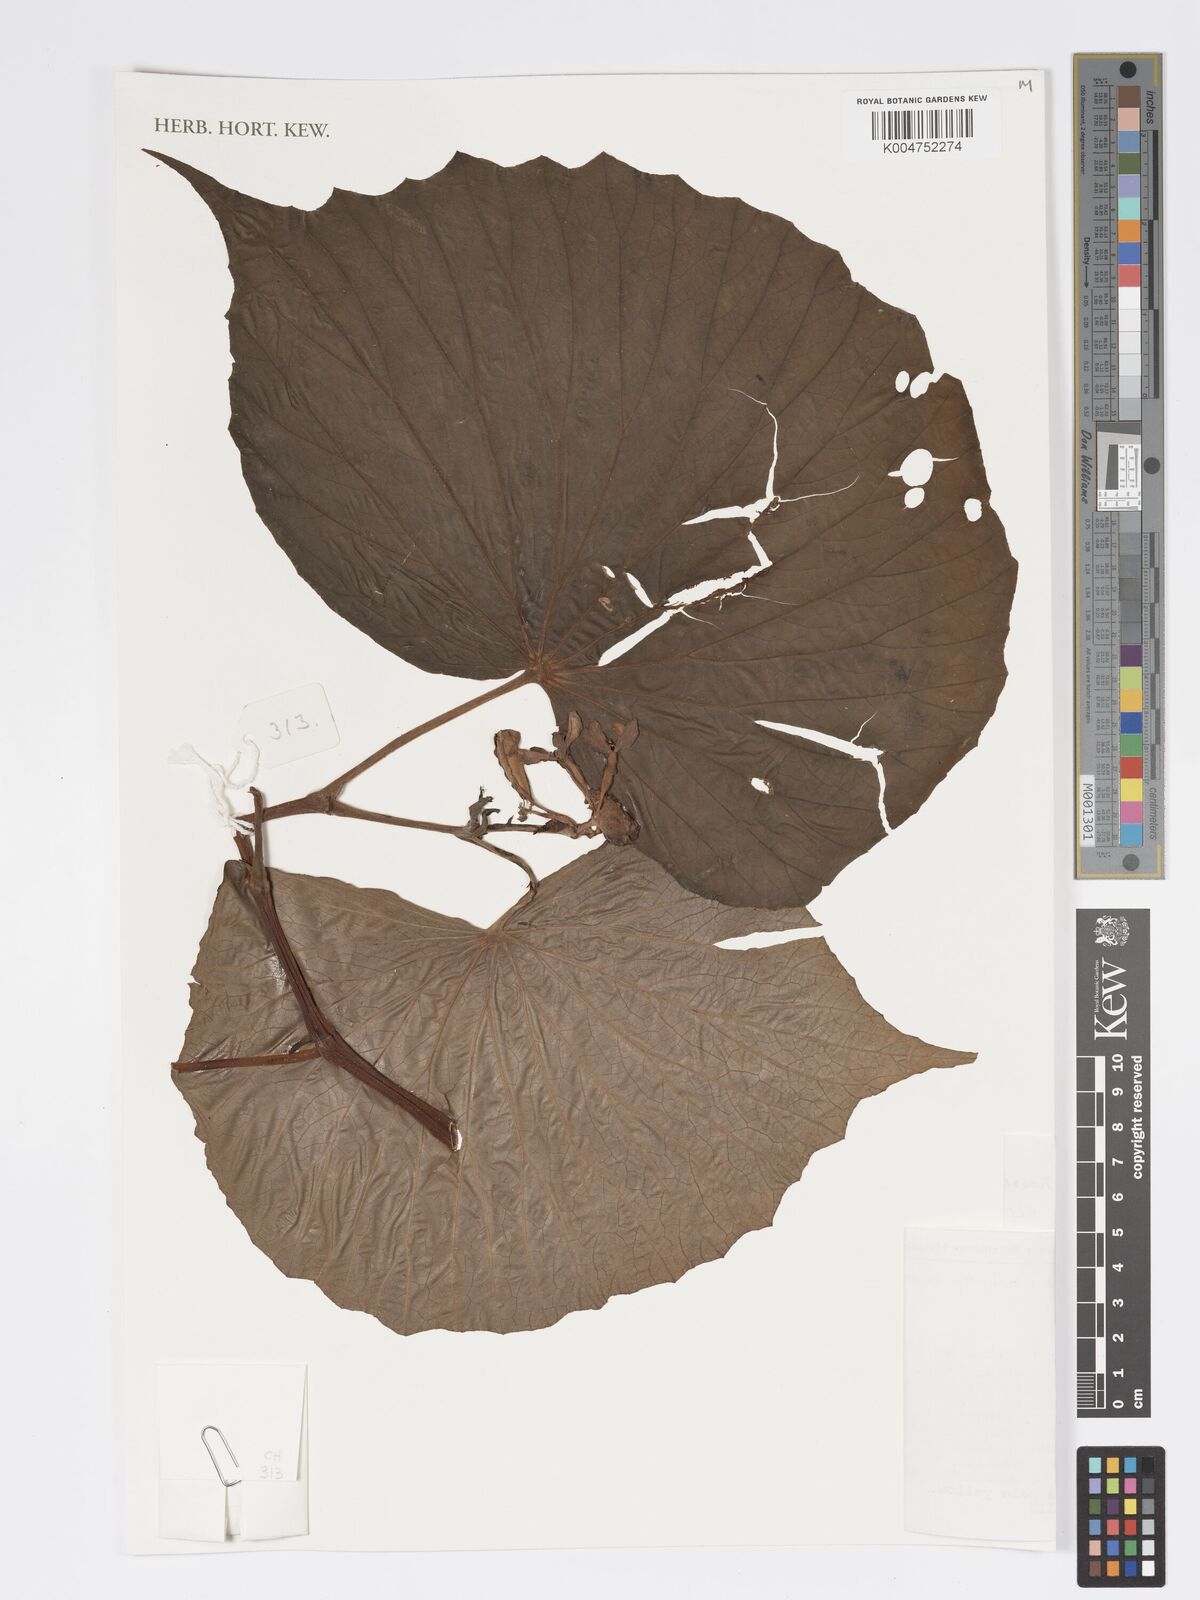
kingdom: Plantae
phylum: Tracheophyta
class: Magnoliopsida
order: Cucurbitales
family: Begoniaceae
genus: Begonia
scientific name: Begonia conniegeriae
